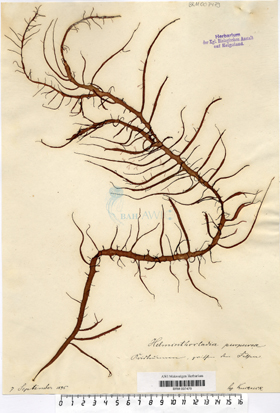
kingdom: Plantae
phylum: Rhodophyta
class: Florideophyceae
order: Nemaliales
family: Liagoraceae
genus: Helminthocladia
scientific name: Helminthocladia calvadosii
